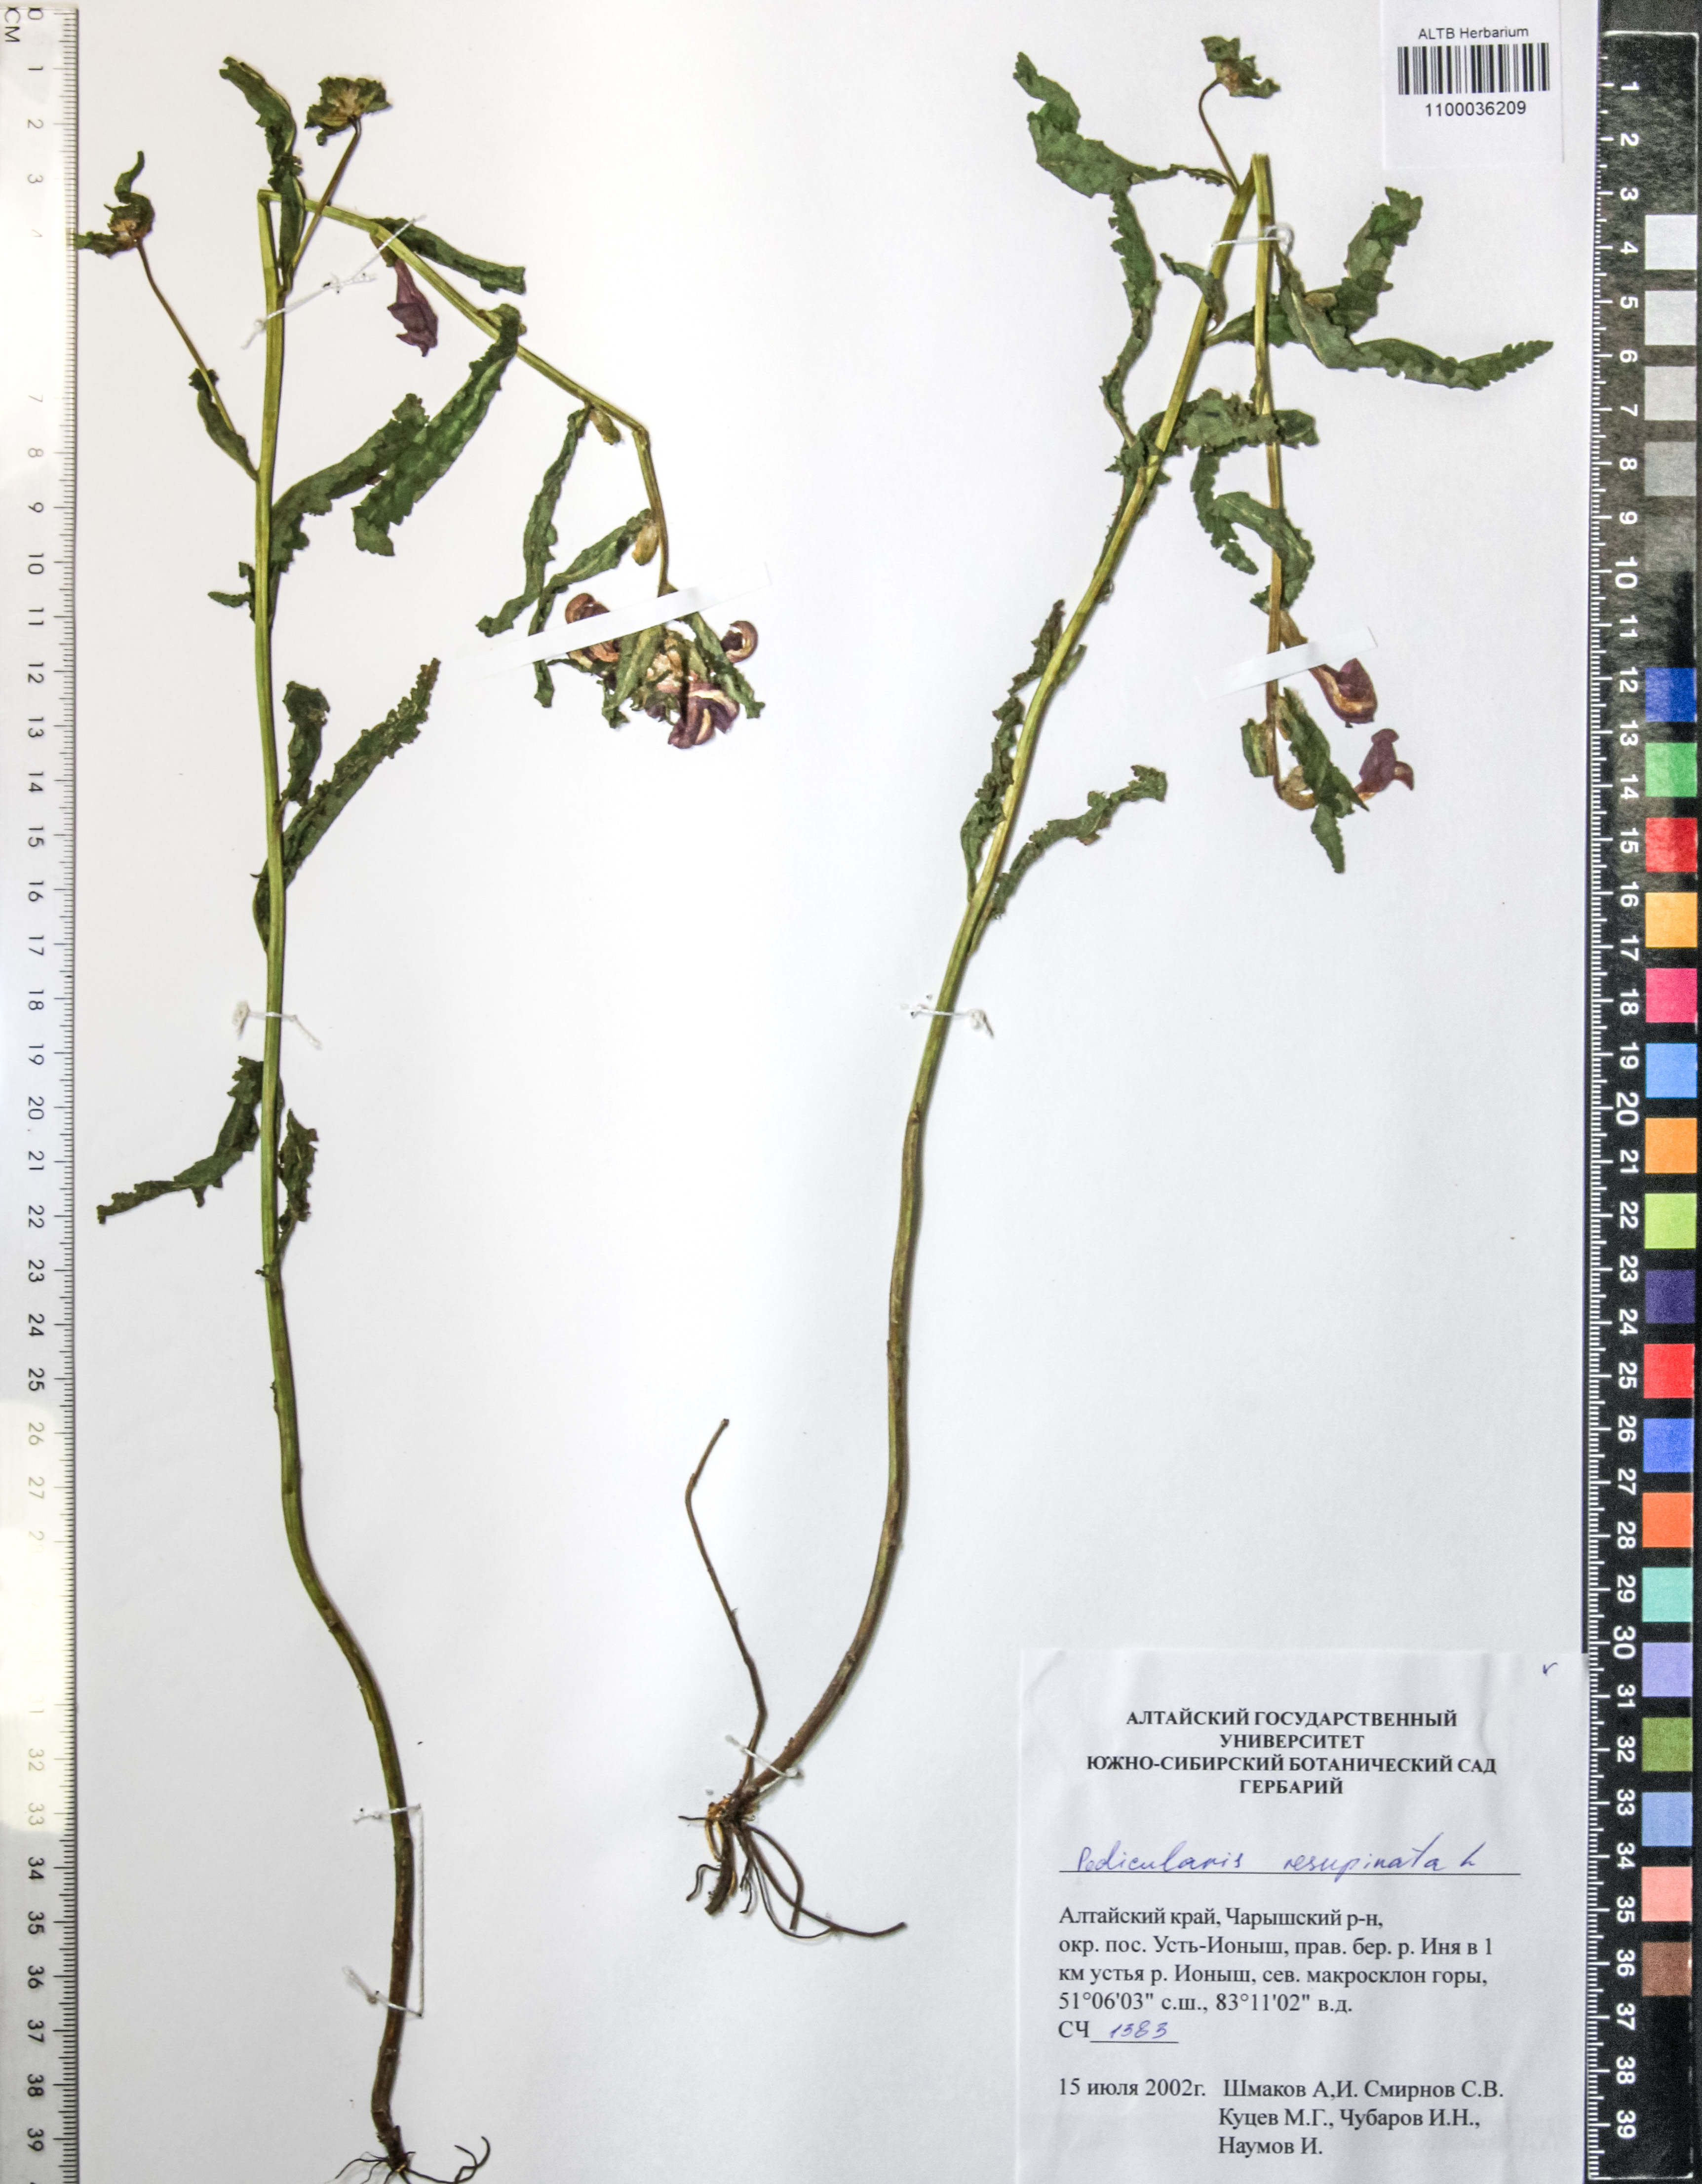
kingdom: Plantae
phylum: Tracheophyta
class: Magnoliopsida
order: Lamiales
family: Orobanchaceae
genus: Pedicularis
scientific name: Pedicularis resupinata
